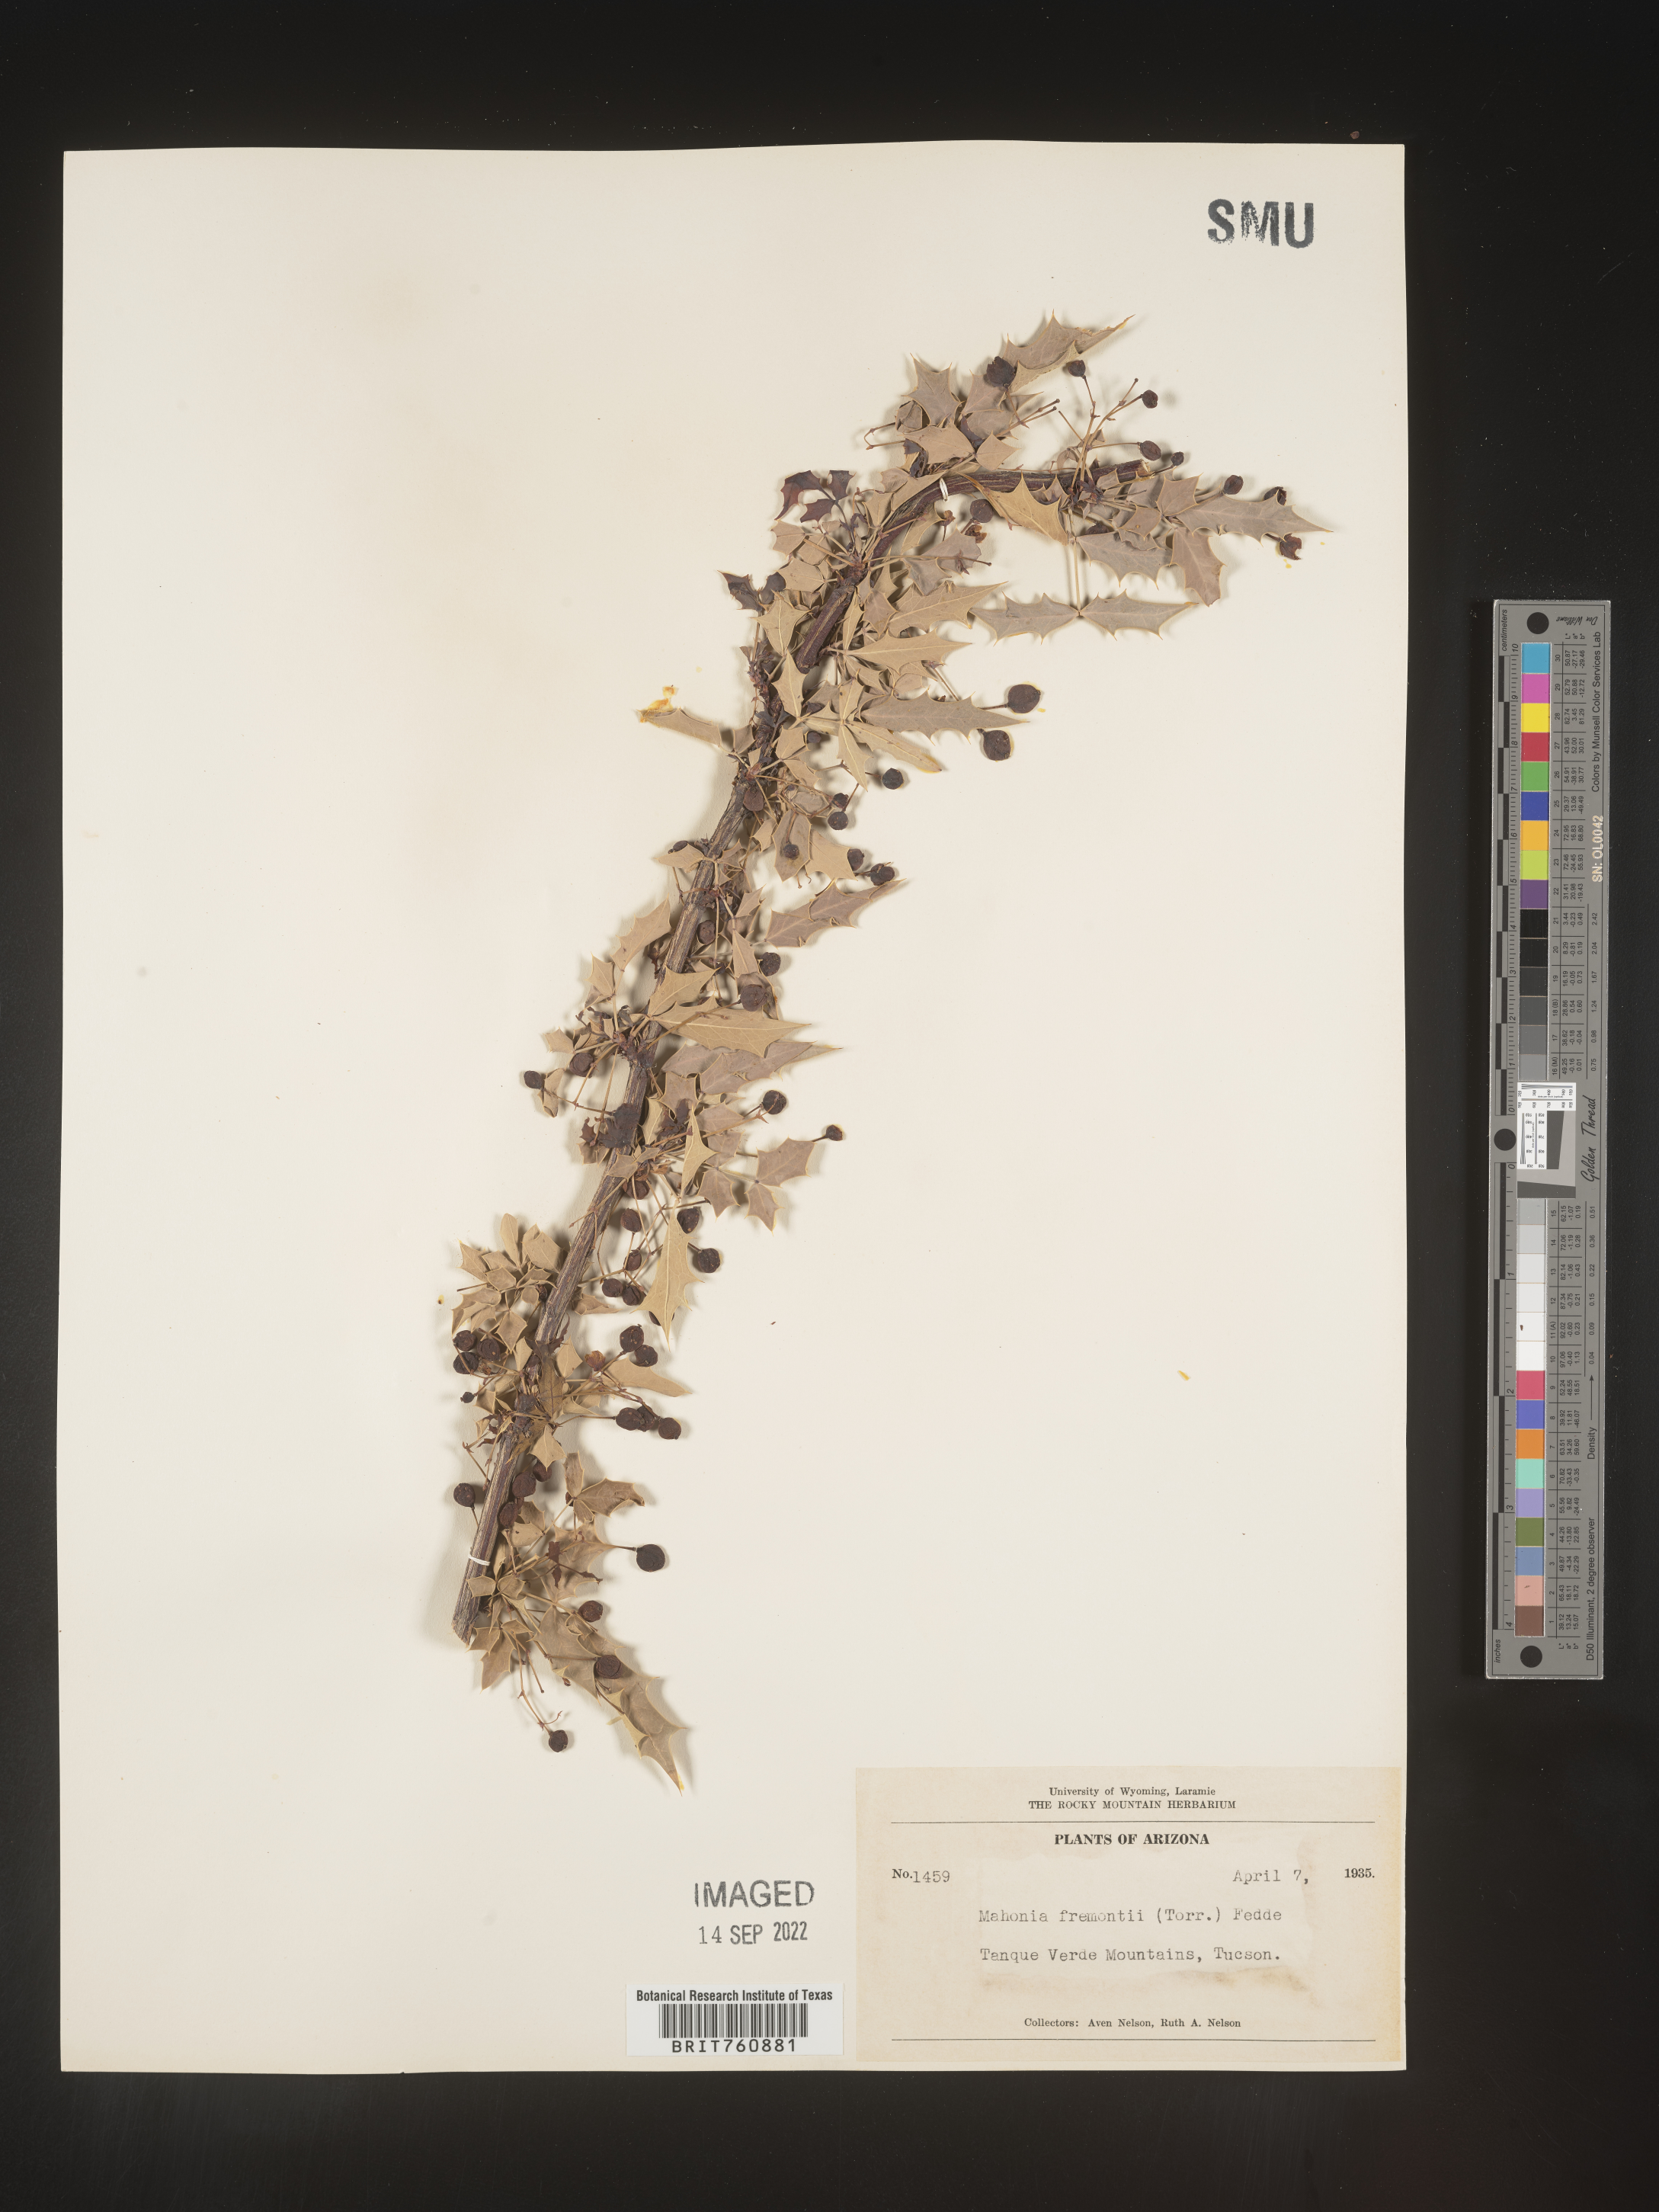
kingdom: Plantae
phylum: Tracheophyta
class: Magnoliopsida
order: Ranunculales
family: Berberidaceae
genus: Mahonia
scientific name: Mahonia
